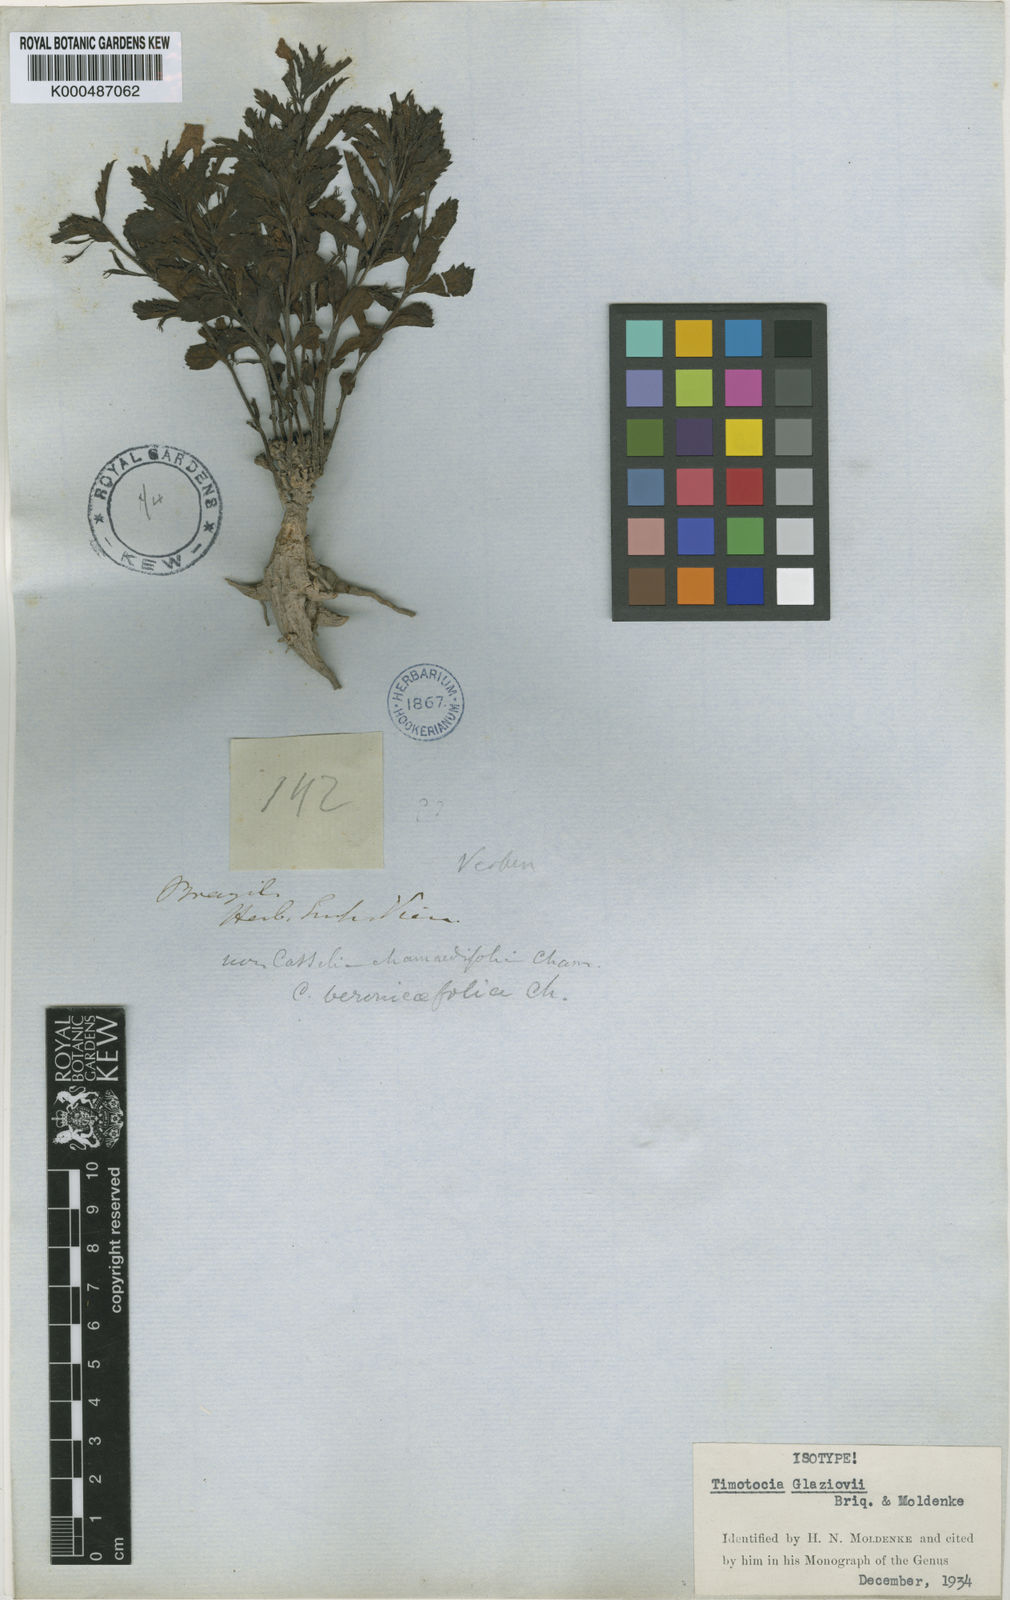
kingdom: Plantae
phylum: Tracheophyta
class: Magnoliopsida
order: Lamiales
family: Verbenaceae
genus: Casselia
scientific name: Casselia glaziovii
